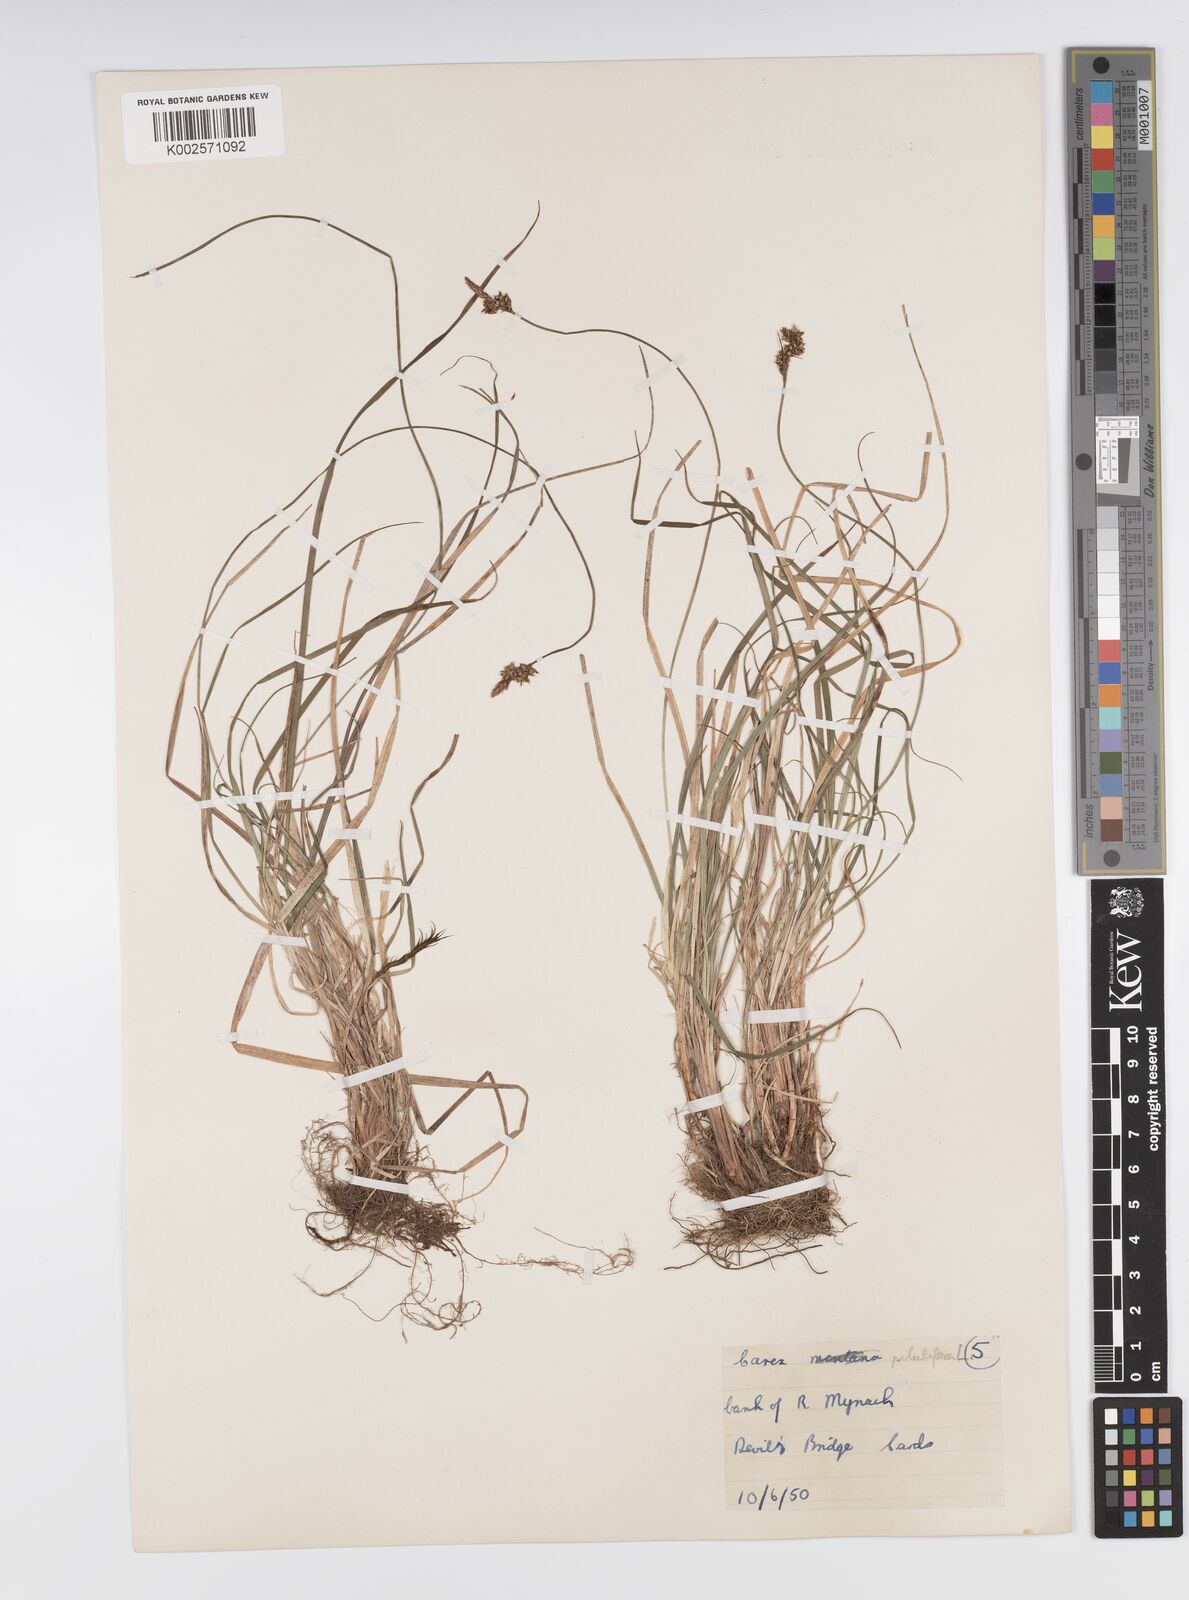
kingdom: Plantae
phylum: Tracheophyta
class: Liliopsida
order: Poales
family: Cyperaceae
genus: Carex
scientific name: Carex pilulifera
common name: Pill sedge
